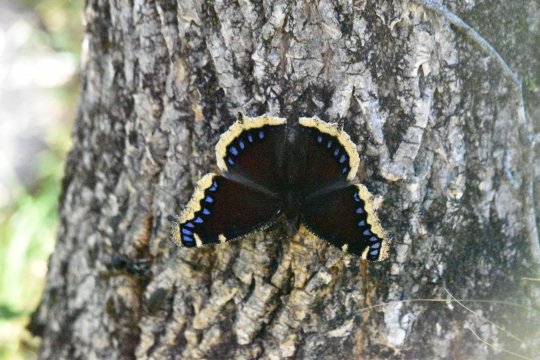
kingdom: Animalia
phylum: Arthropoda
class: Insecta
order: Lepidoptera
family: Nymphalidae
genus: Nymphalis
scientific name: Nymphalis antiopa
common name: Mourning Cloak
